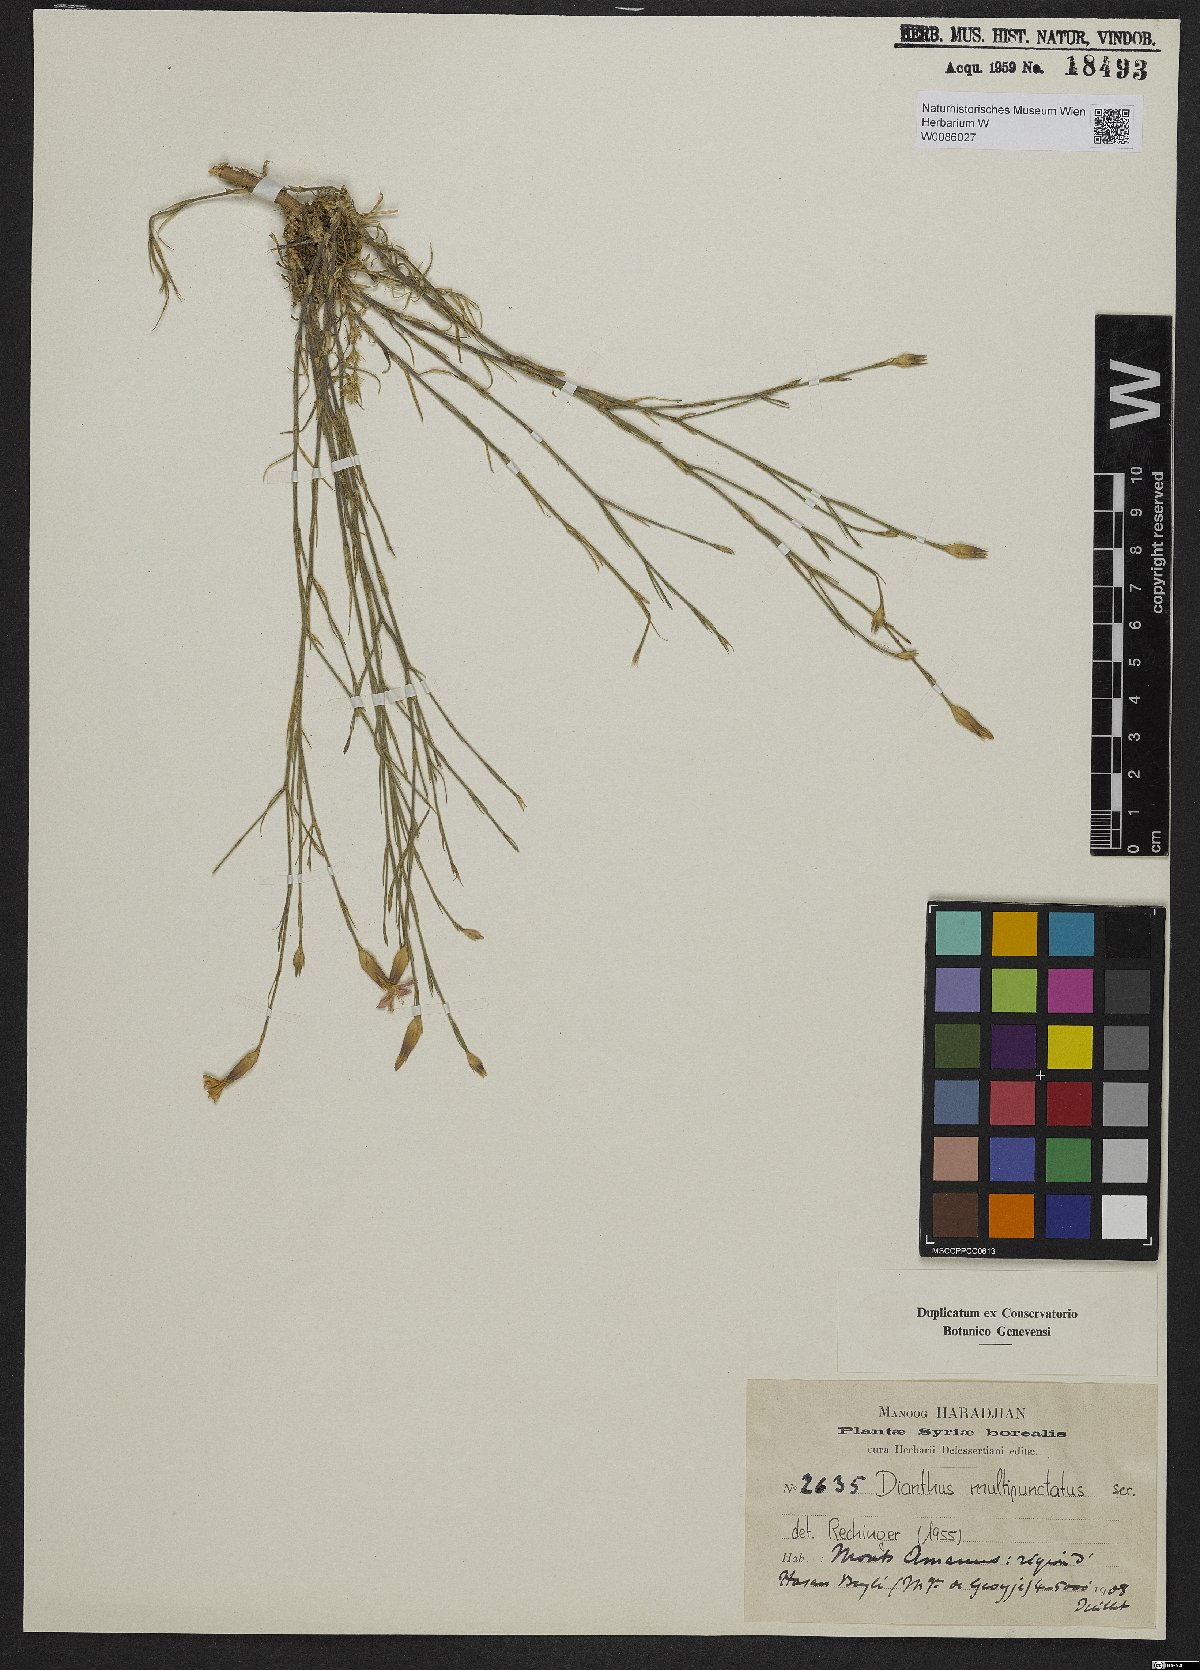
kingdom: Plantae
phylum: Tracheophyta
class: Magnoliopsida
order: Caryophyllales
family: Caryophyllaceae
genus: Dianthus
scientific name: Dianthus strictus
